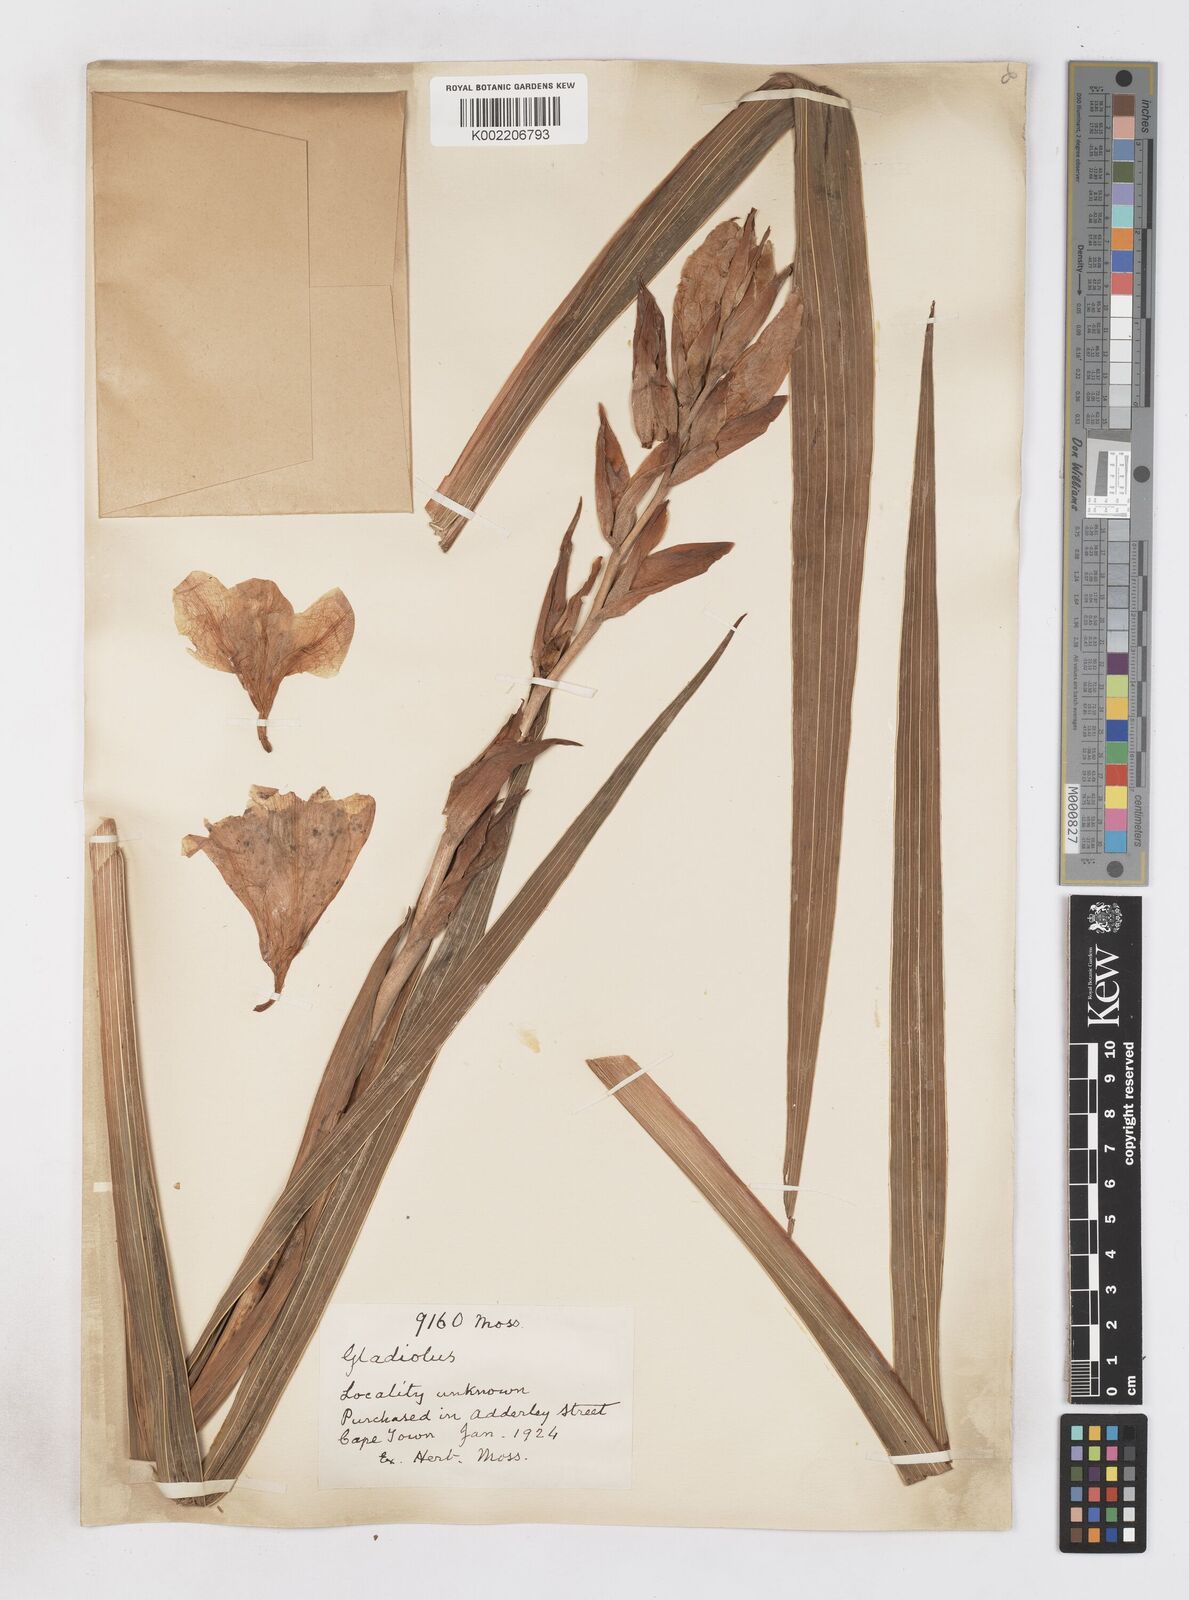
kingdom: Plantae
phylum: Tracheophyta
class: Liliopsida
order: Asparagales
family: Iridaceae
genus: Gladiolus
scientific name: Gladiolus
